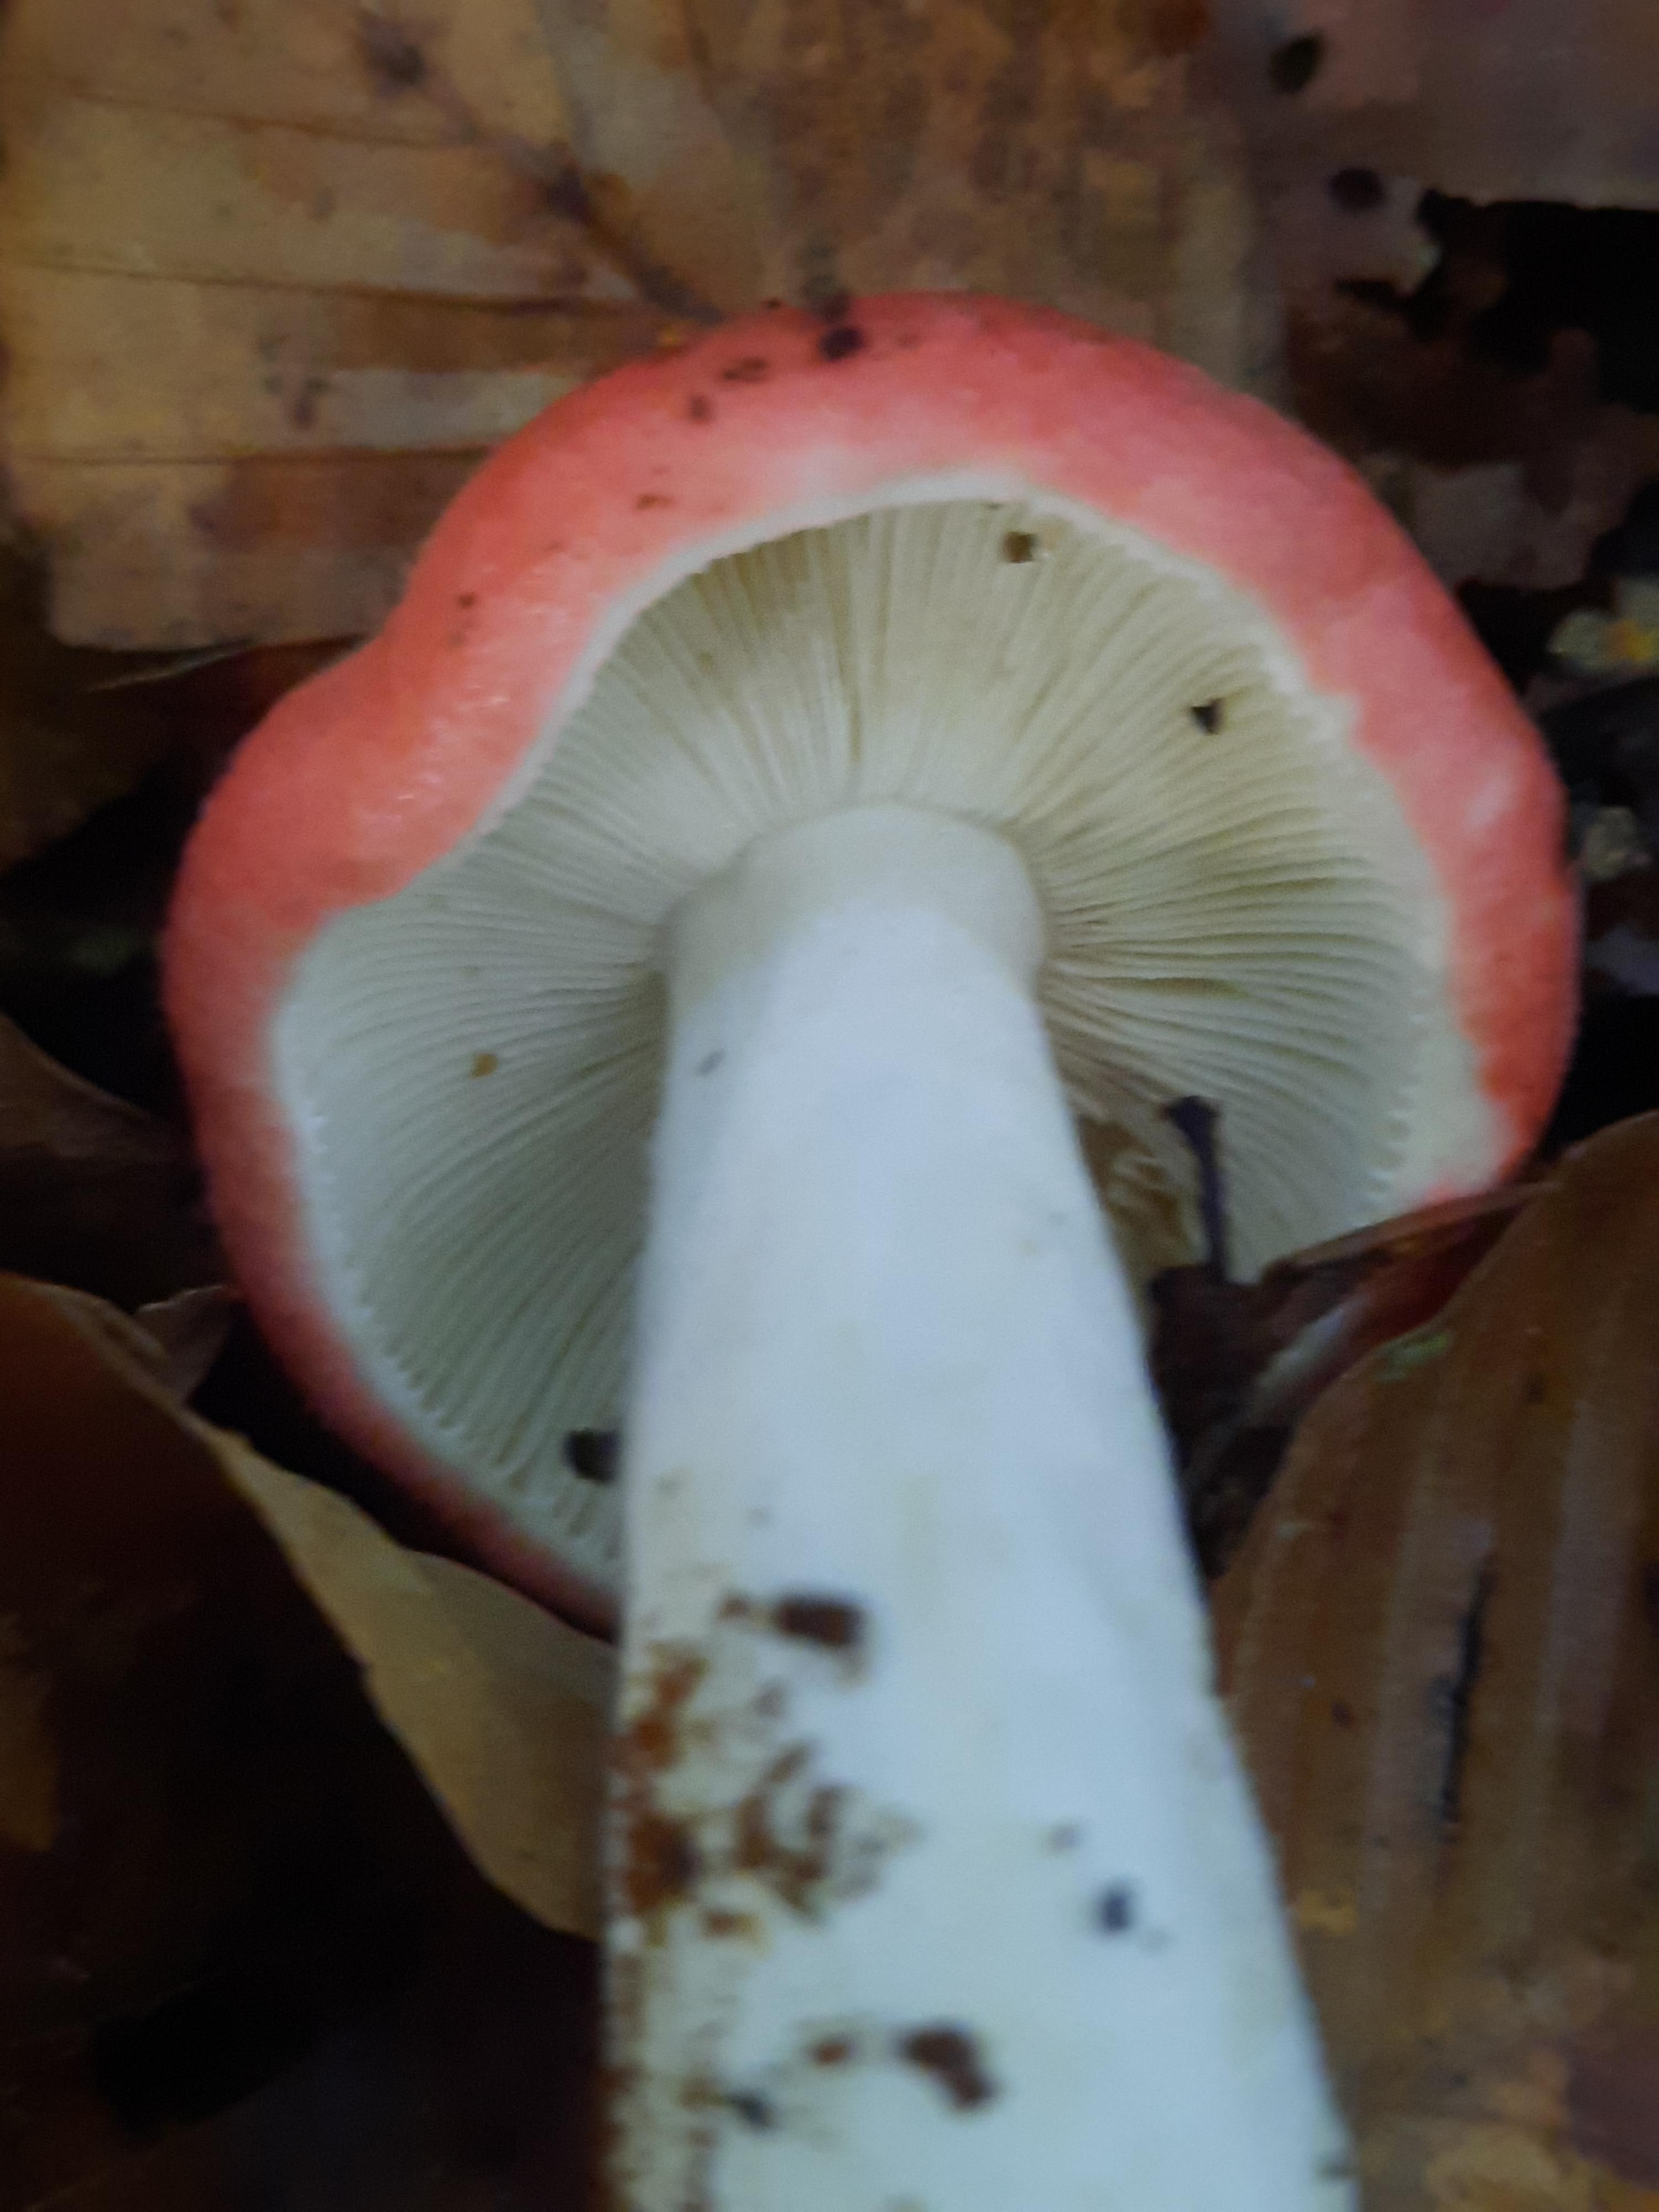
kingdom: Fungi
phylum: Basidiomycota
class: Agaricomycetes
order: Russulales
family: Russulaceae
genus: Russula
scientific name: Russula
